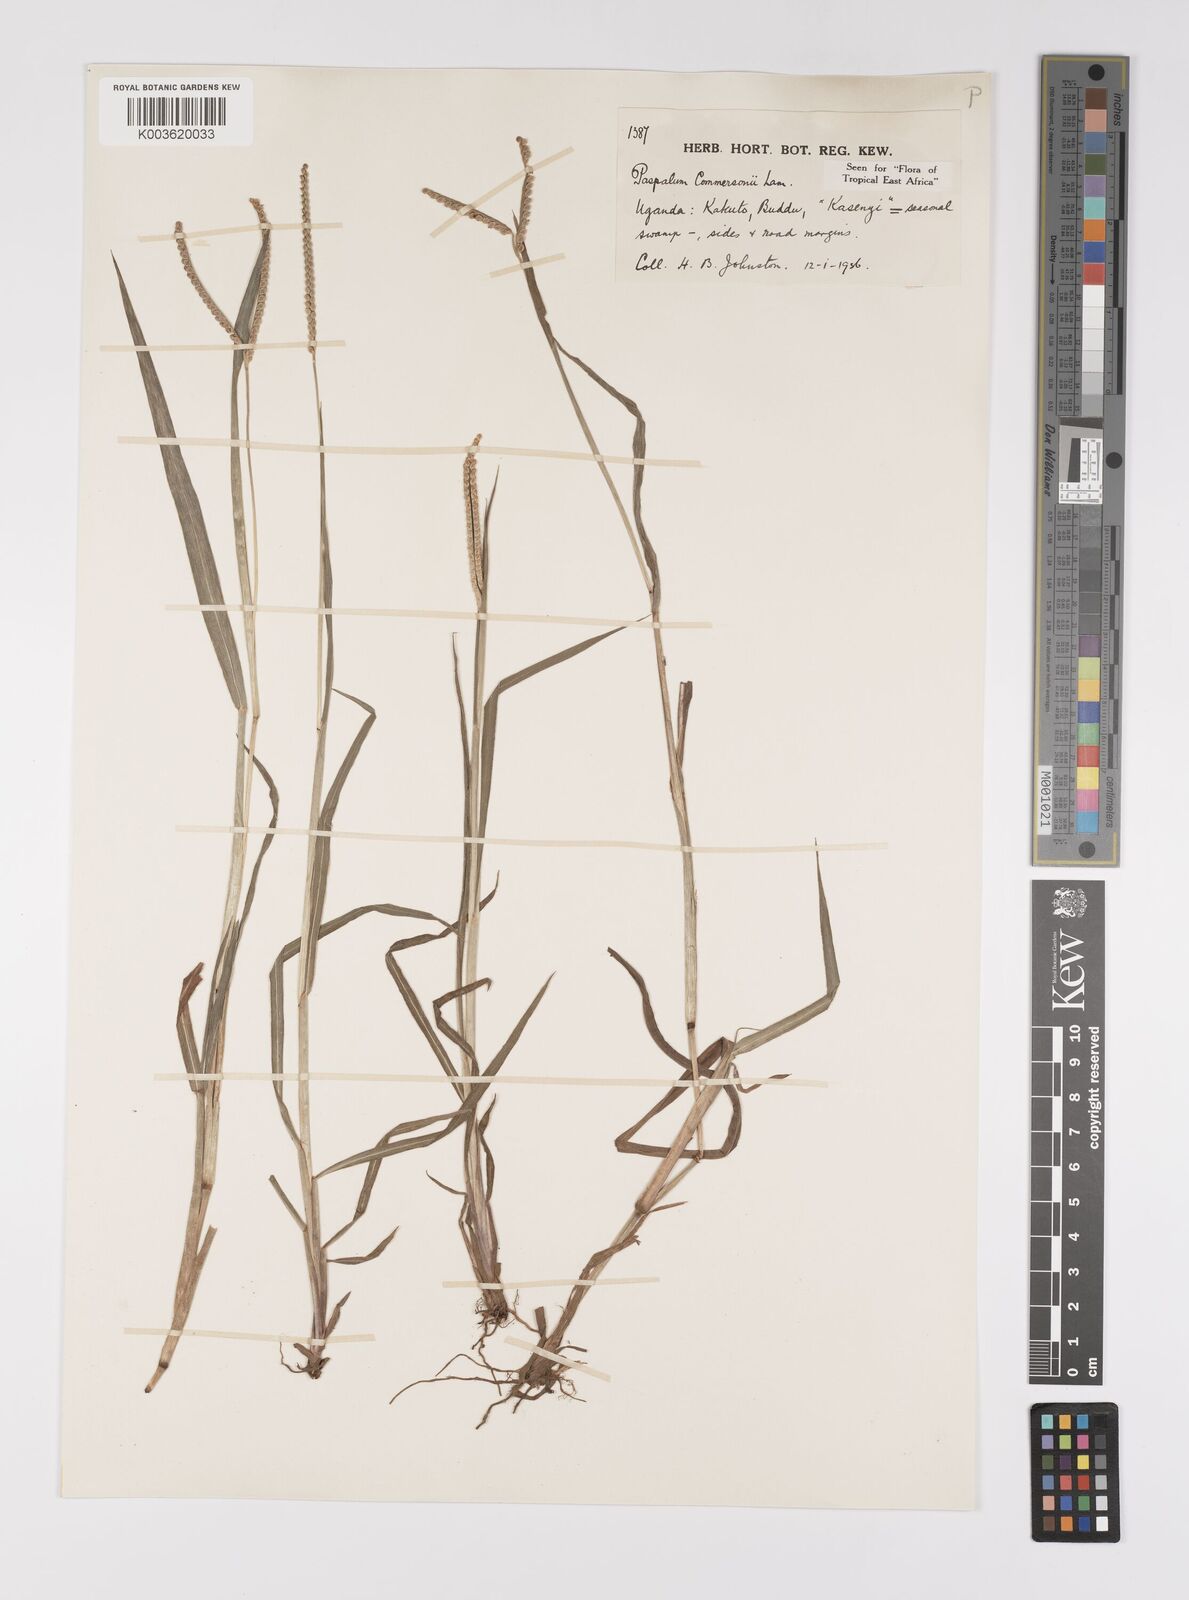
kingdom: Plantae
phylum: Tracheophyta
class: Liliopsida
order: Poales
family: Poaceae
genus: Paspalum
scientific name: Paspalum scrobiculatum
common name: Kodo millet
